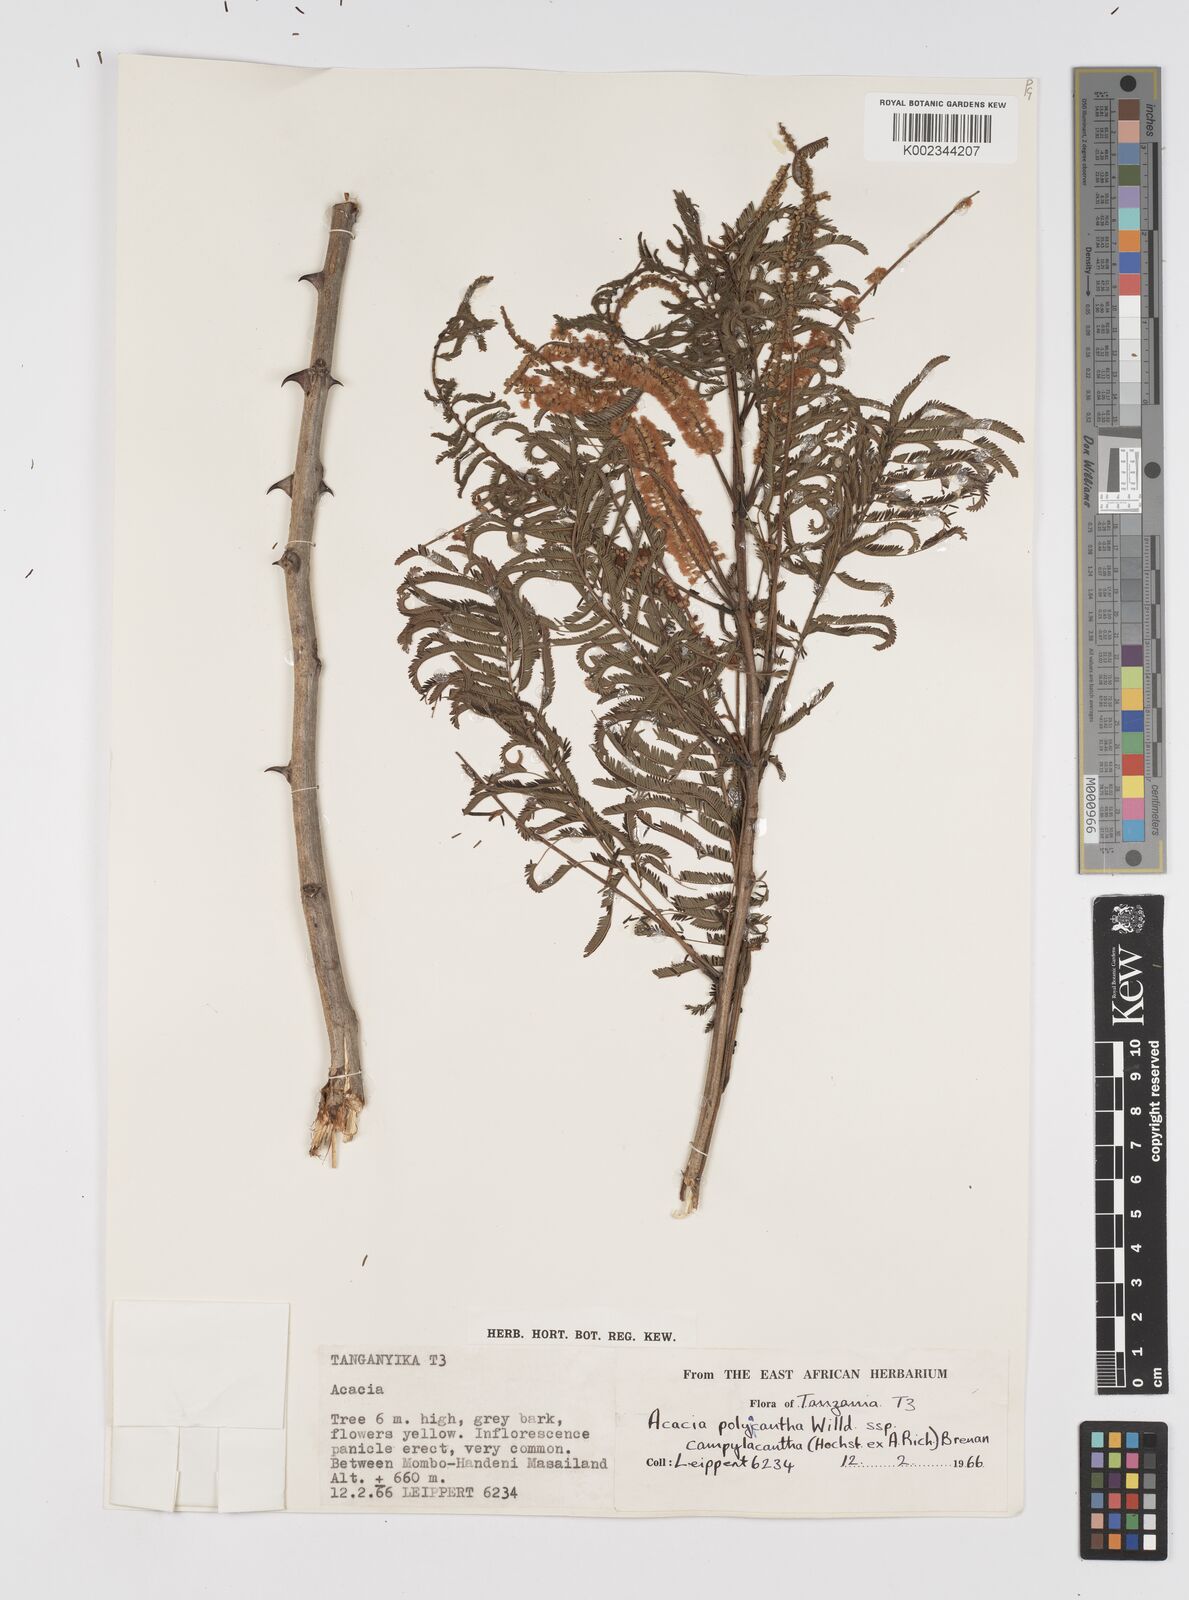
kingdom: Plantae
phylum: Tracheophyta
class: Magnoliopsida
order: Fabales
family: Fabaceae
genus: Senegalia
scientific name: Senegalia polyacantha
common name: Whitethorn
